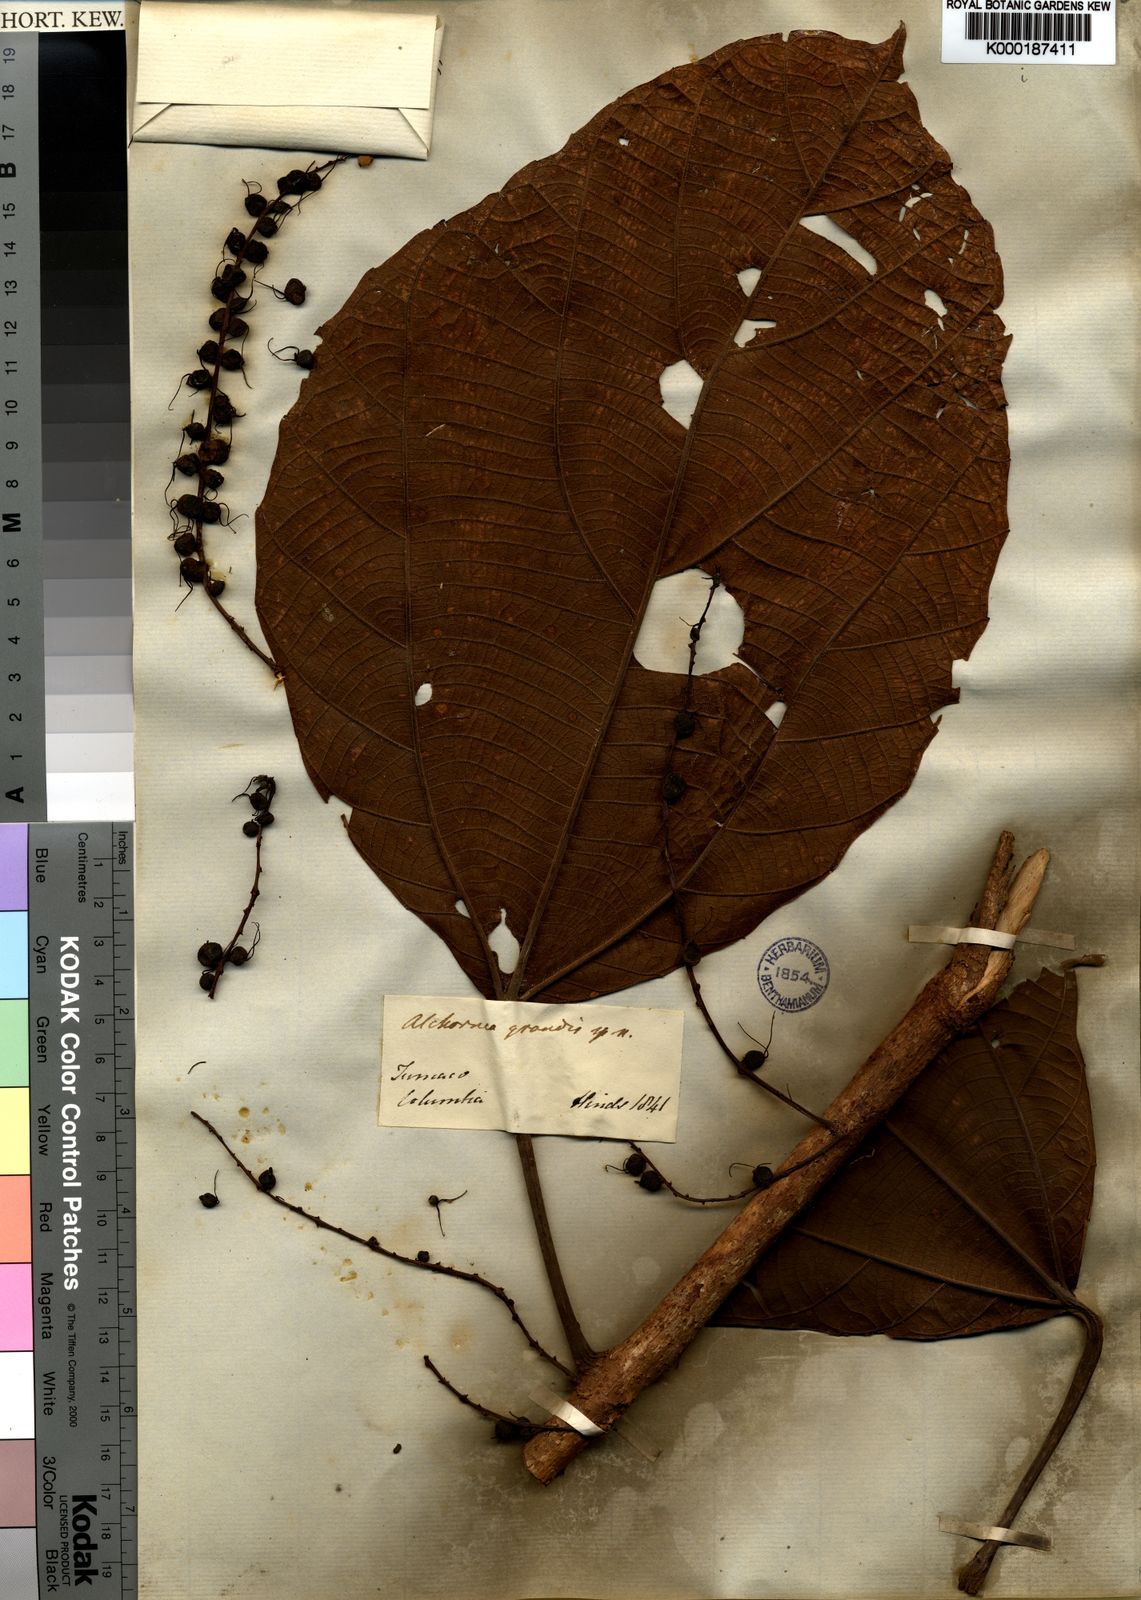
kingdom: Plantae
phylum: Tracheophyta
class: Magnoliopsida
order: Malpighiales
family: Euphorbiaceae
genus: Alchornea
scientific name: Alchornea grandis
